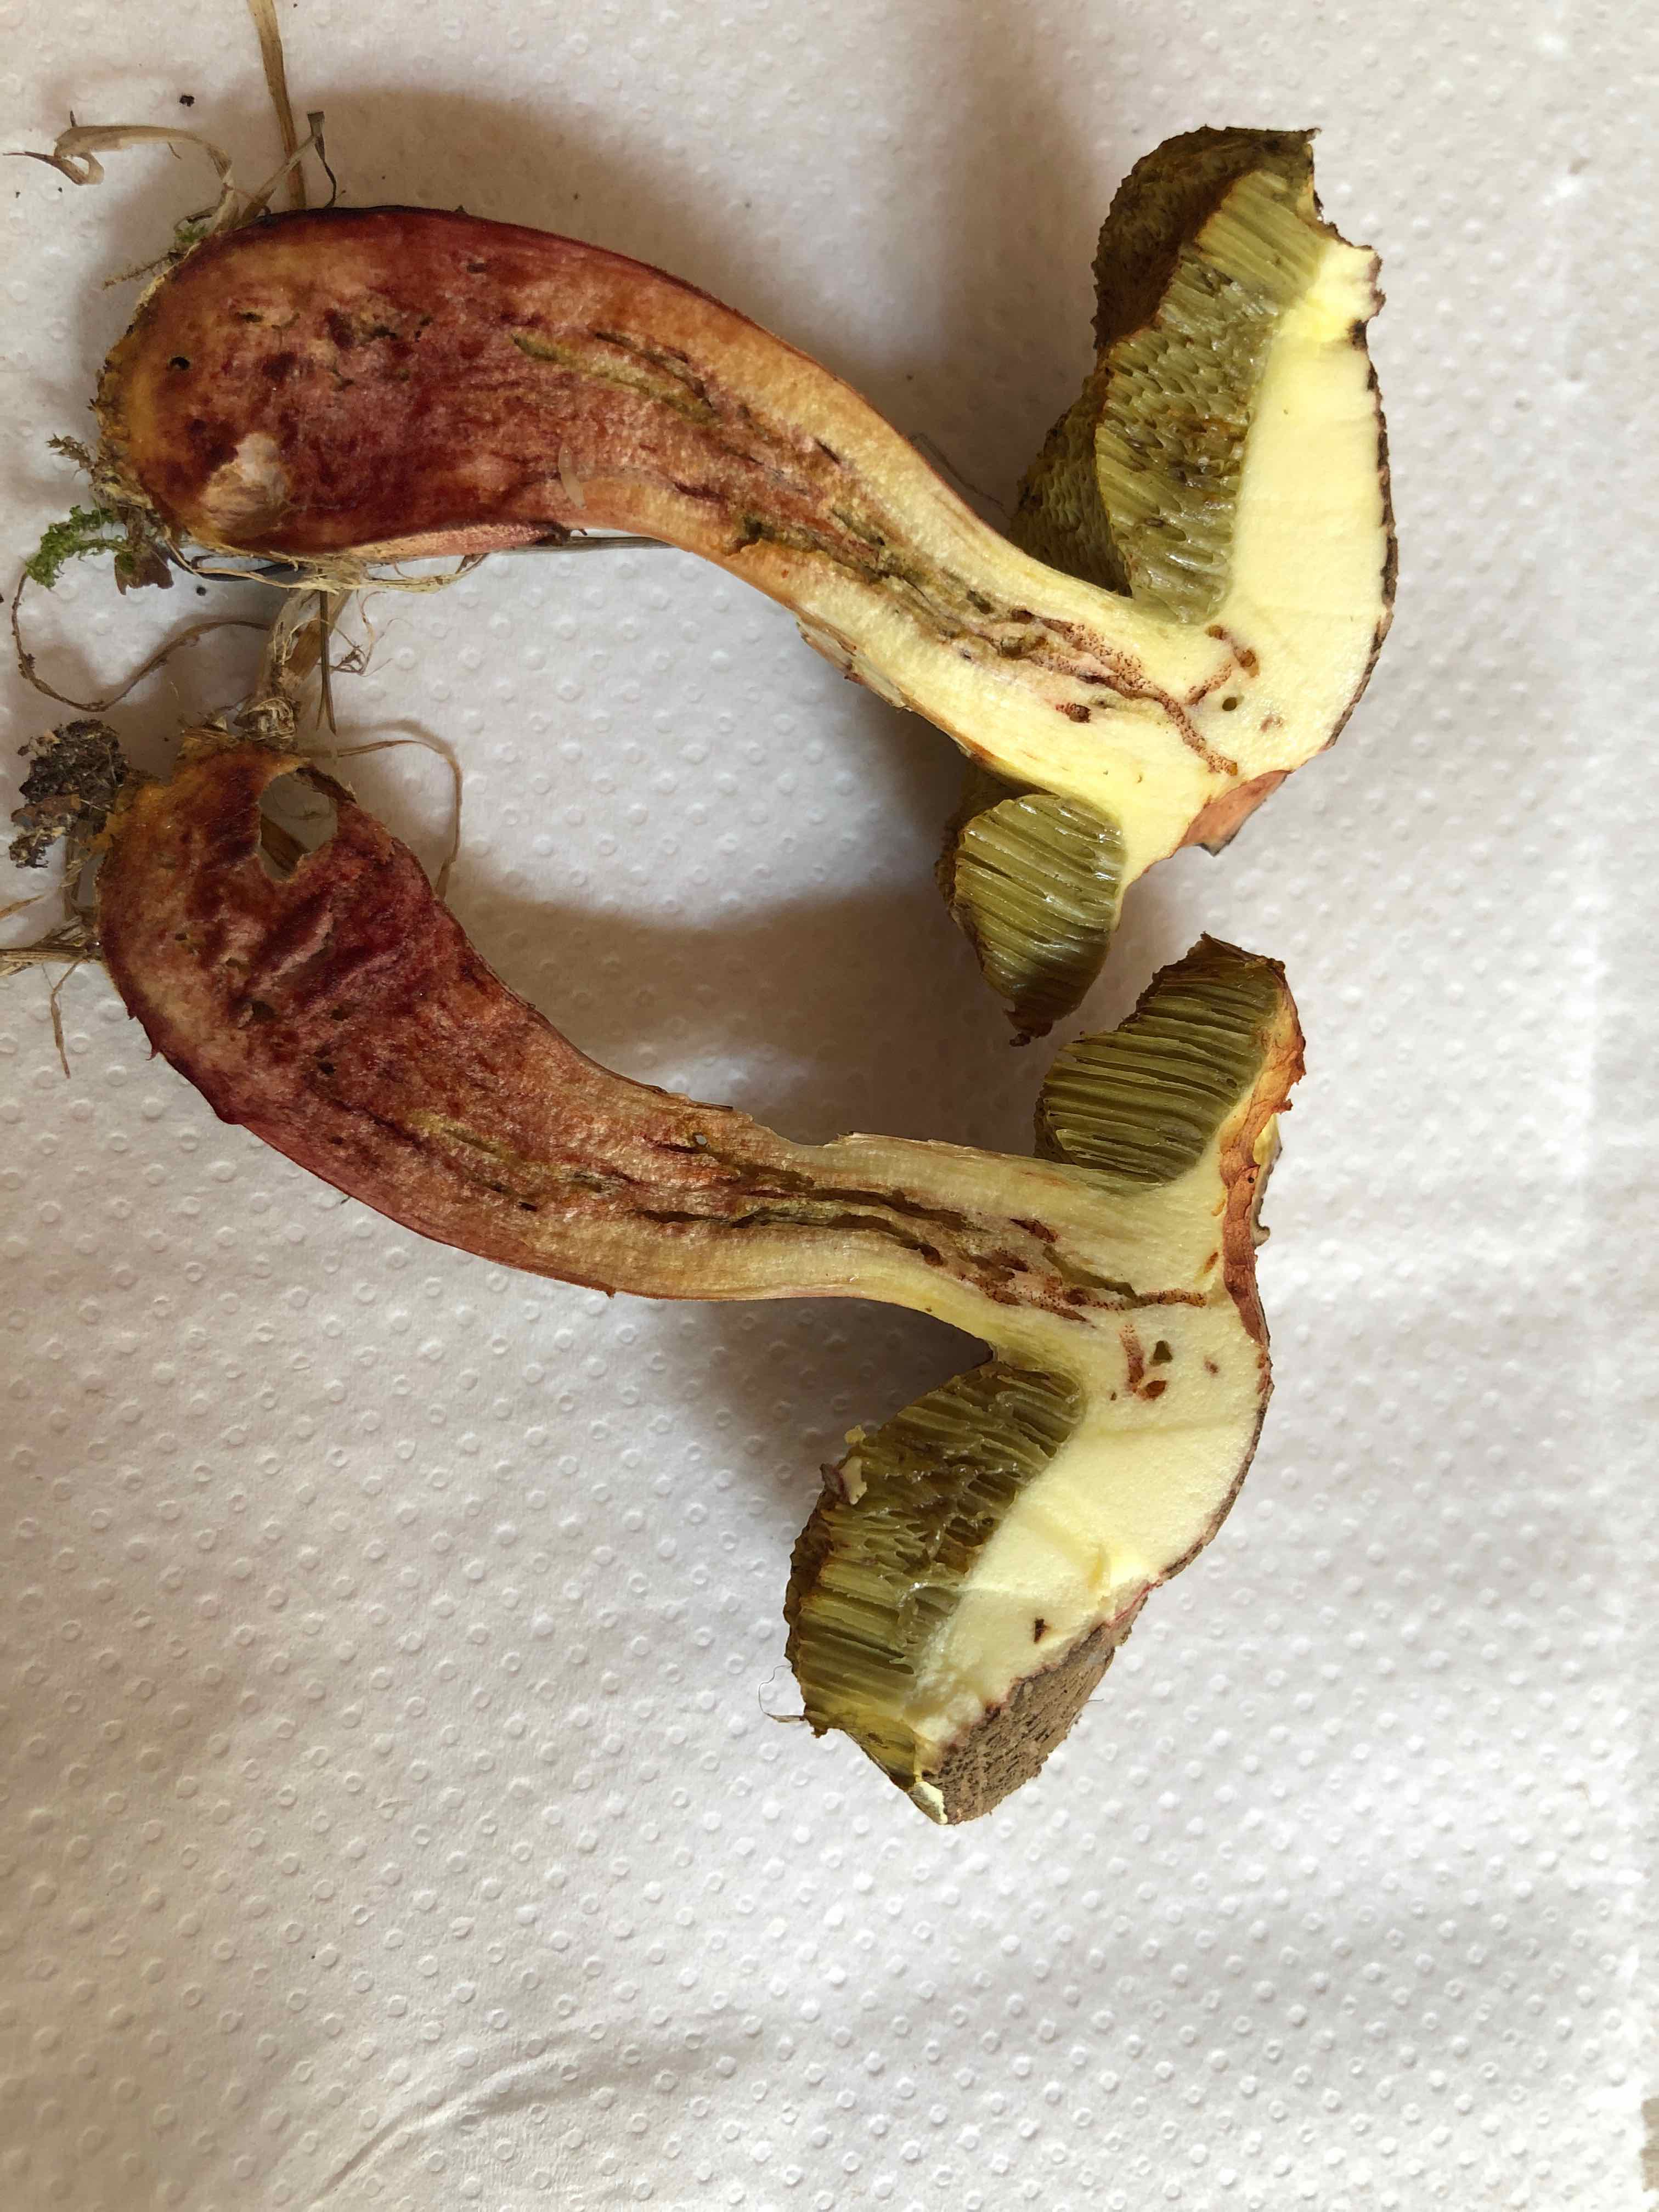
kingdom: Fungi
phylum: Basidiomycota
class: Agaricomycetes
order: Boletales
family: Boletaceae
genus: Xerocomellus
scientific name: Xerocomellus chrysenteron
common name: rødsprukken rørhat
